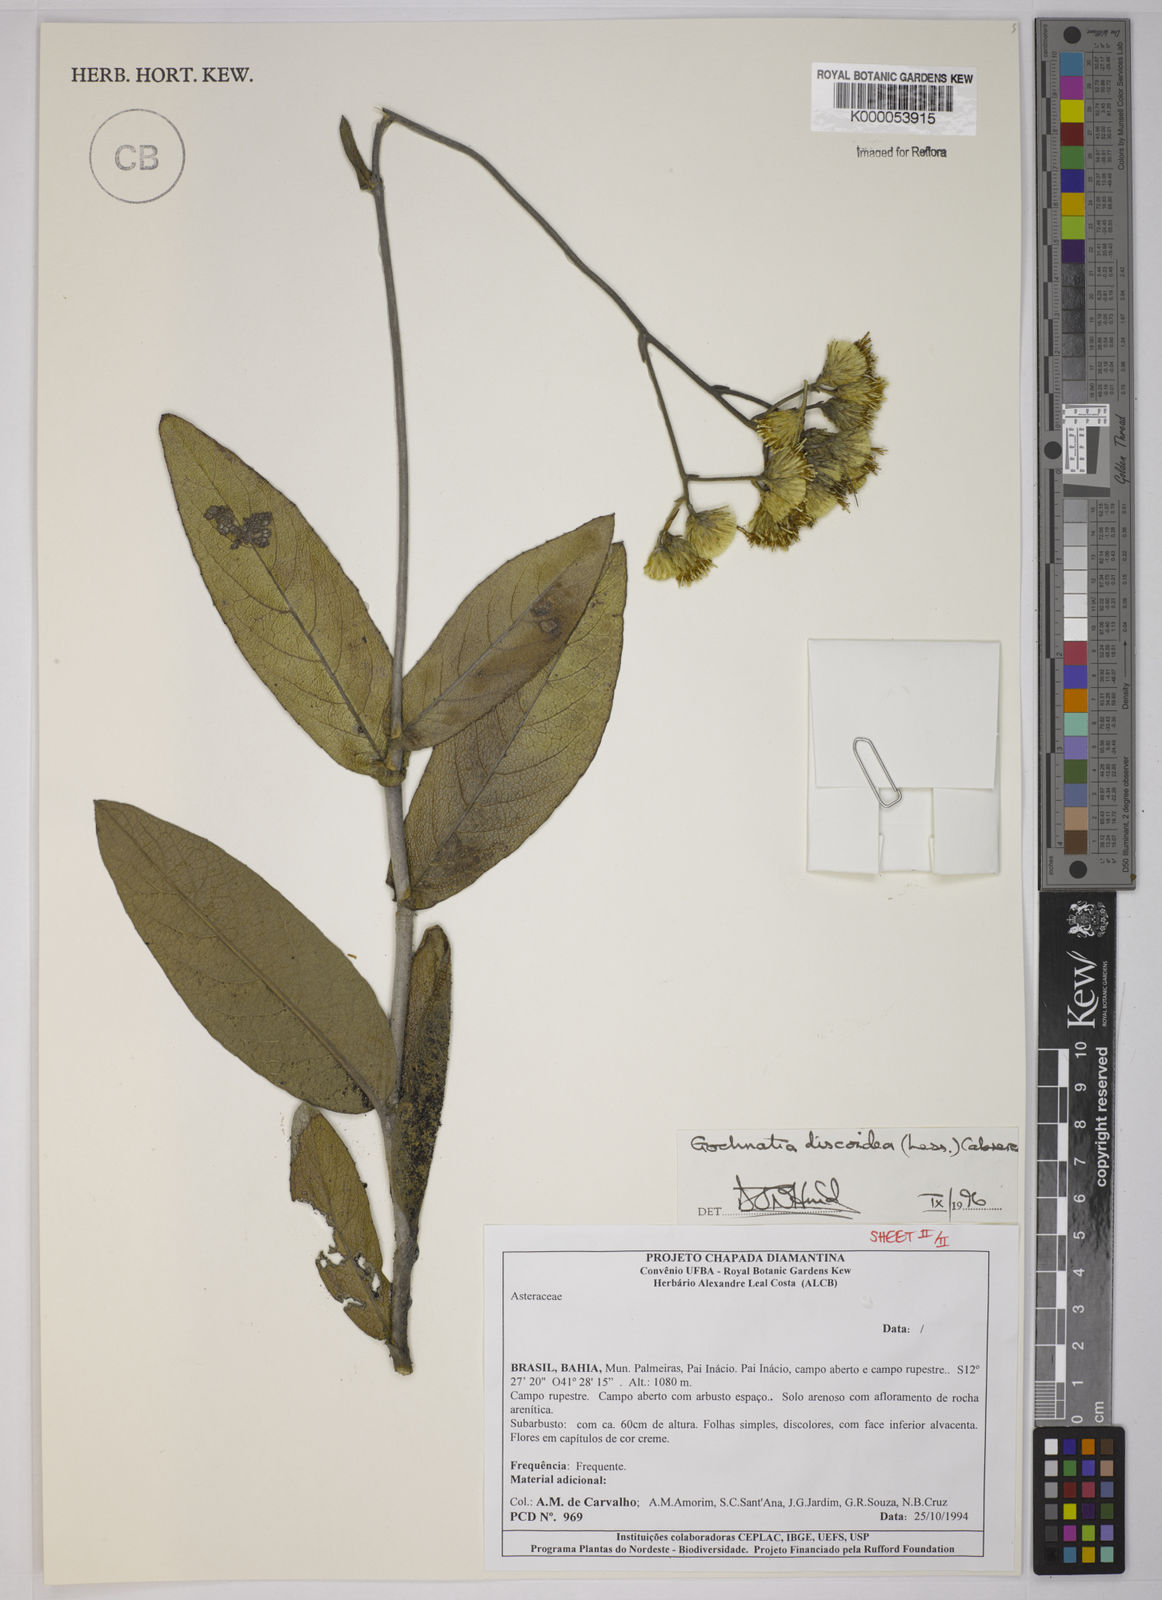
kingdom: Plantae
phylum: Tracheophyta
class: Magnoliopsida
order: Asterales
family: Asteraceae
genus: Richterago
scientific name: Richterago discoidea
